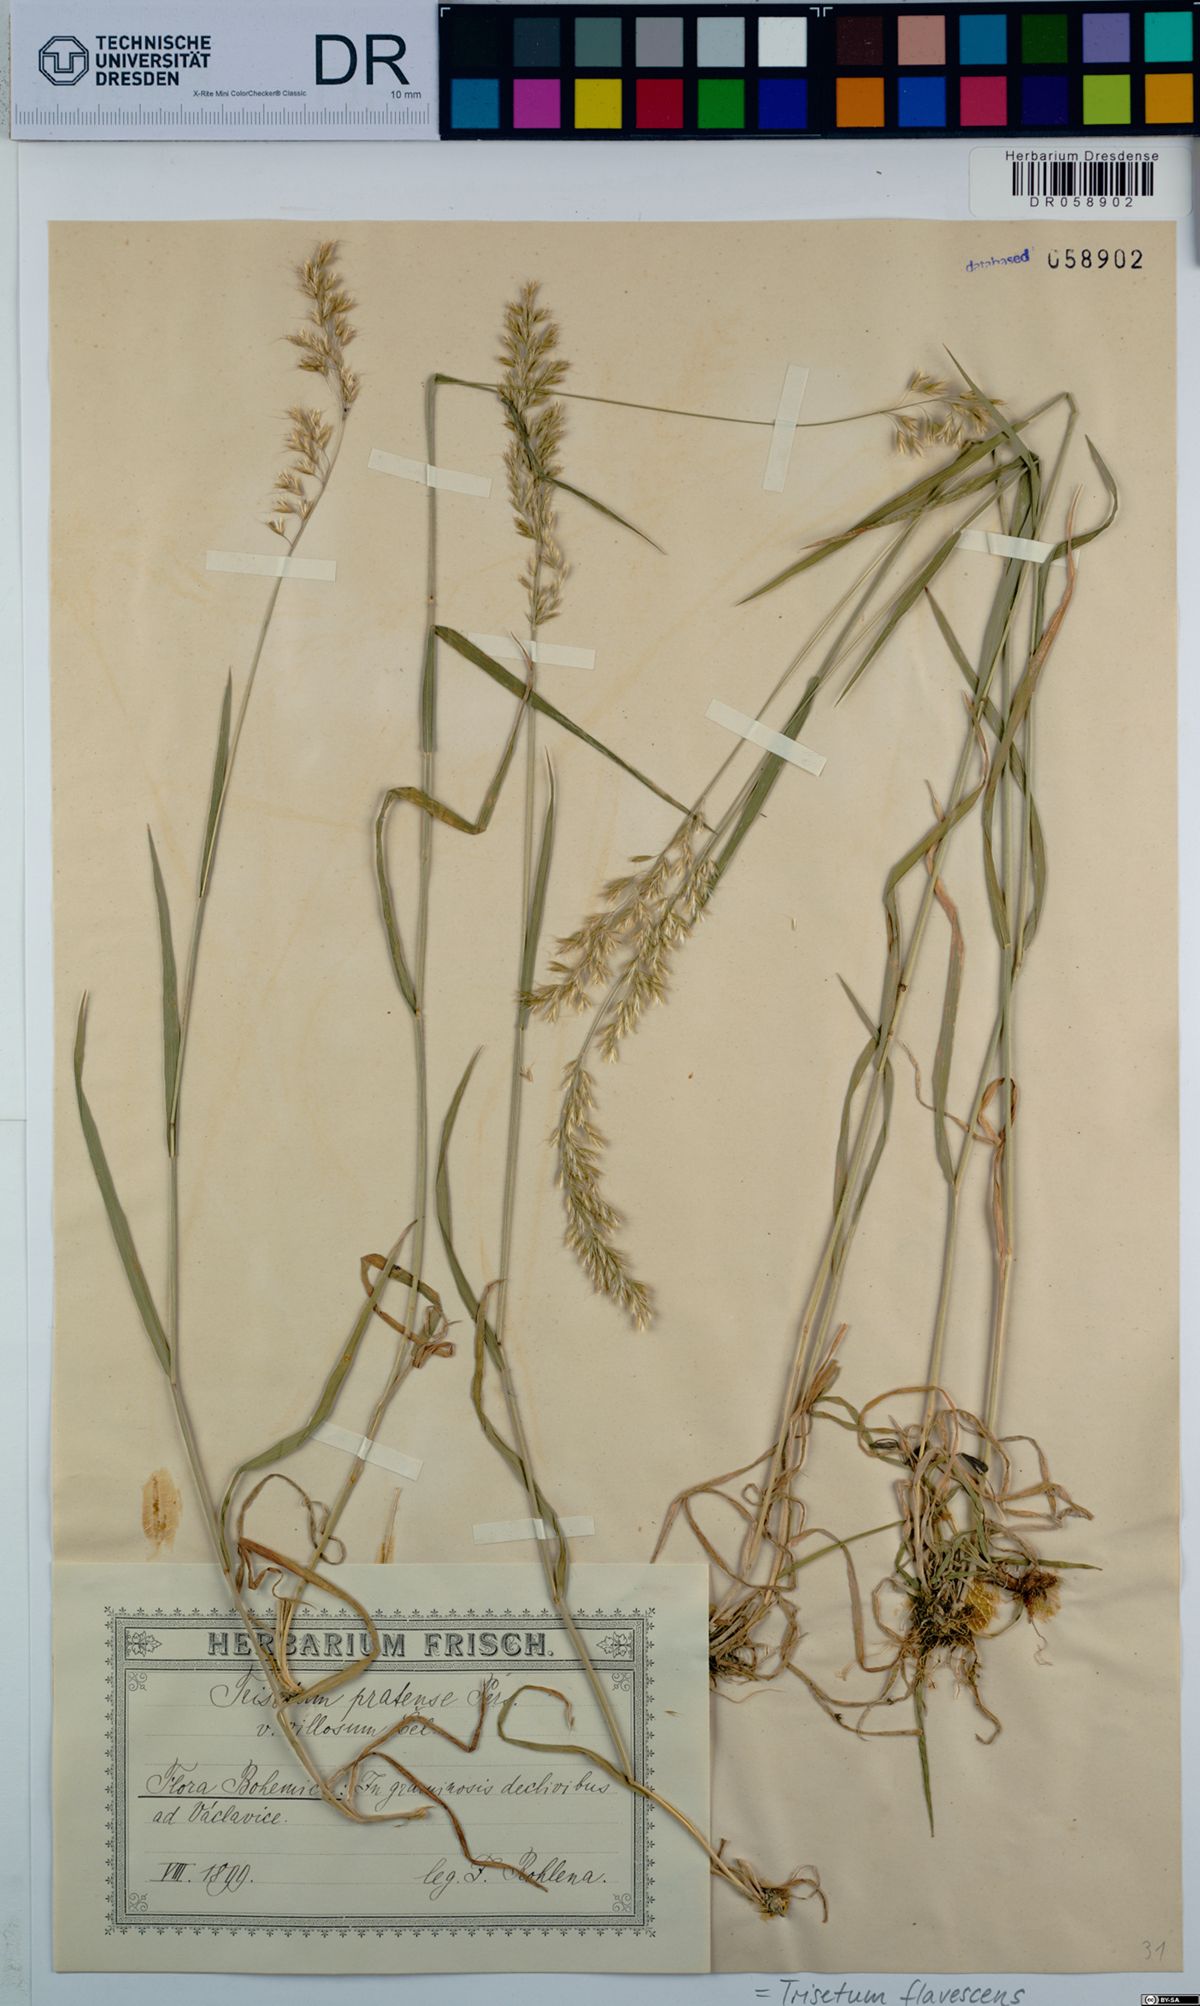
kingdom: Plantae
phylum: Tracheophyta
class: Liliopsida
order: Poales
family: Poaceae
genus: Trisetum
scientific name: Trisetum flavescens
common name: Yellow oat-grass
